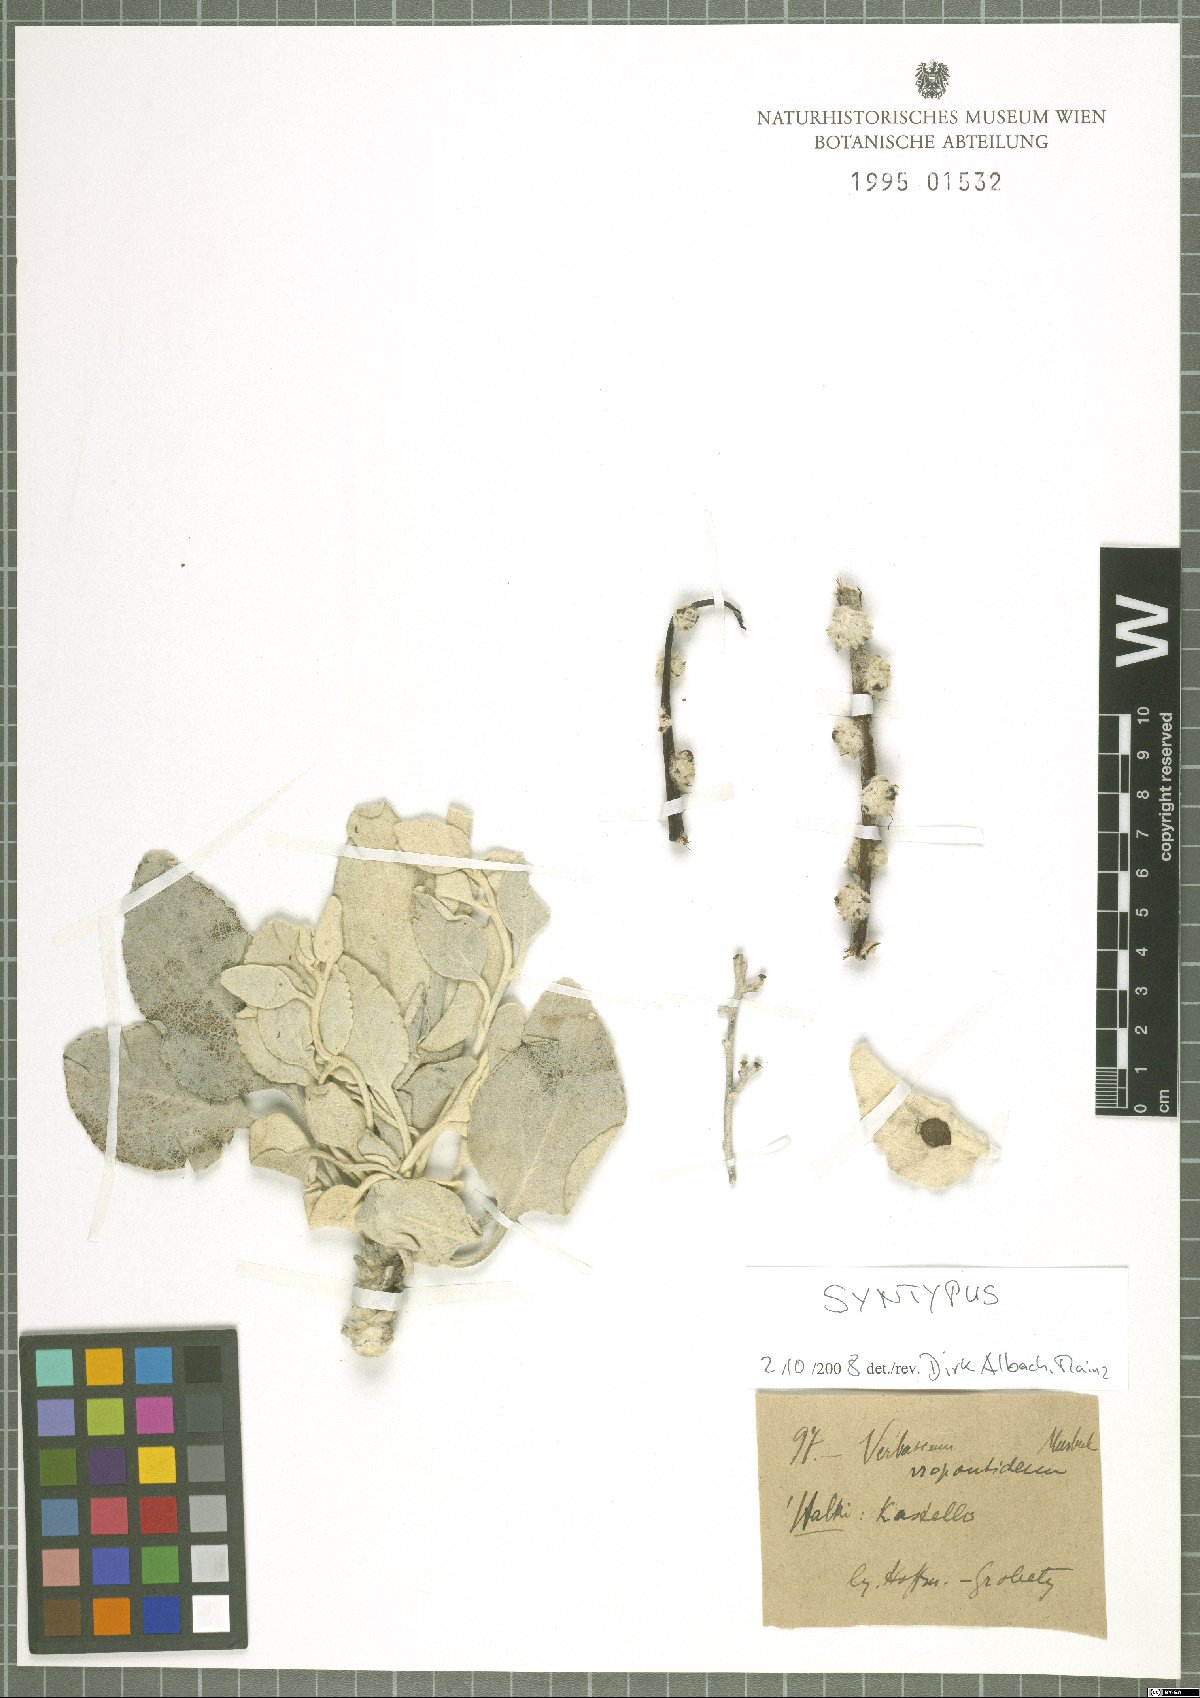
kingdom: Plantae
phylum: Tracheophyta
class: Magnoliopsida
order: Lamiales
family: Scrophulariaceae
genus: Verbascum
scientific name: Verbascum auriculatum
